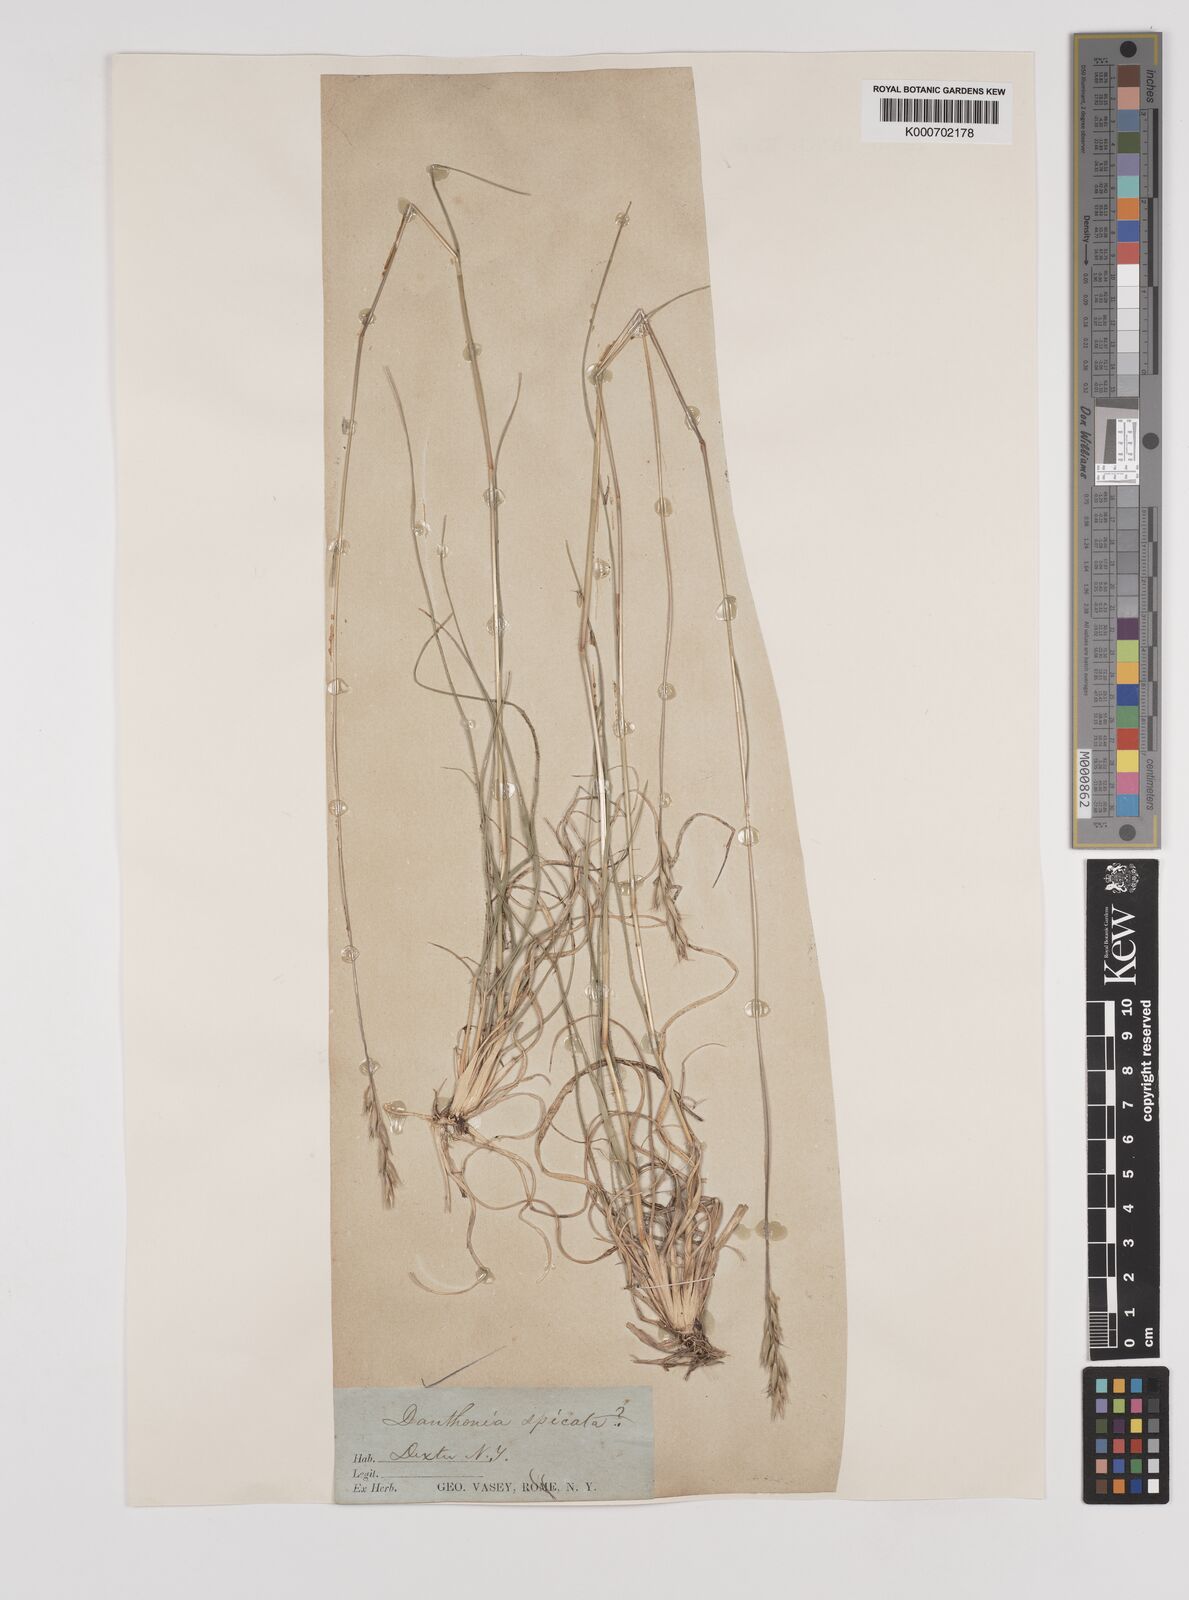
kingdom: Plantae
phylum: Tracheophyta
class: Liliopsida
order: Poales
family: Poaceae
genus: Danthonia
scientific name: Danthonia spicata
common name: Common wild oatgrass
